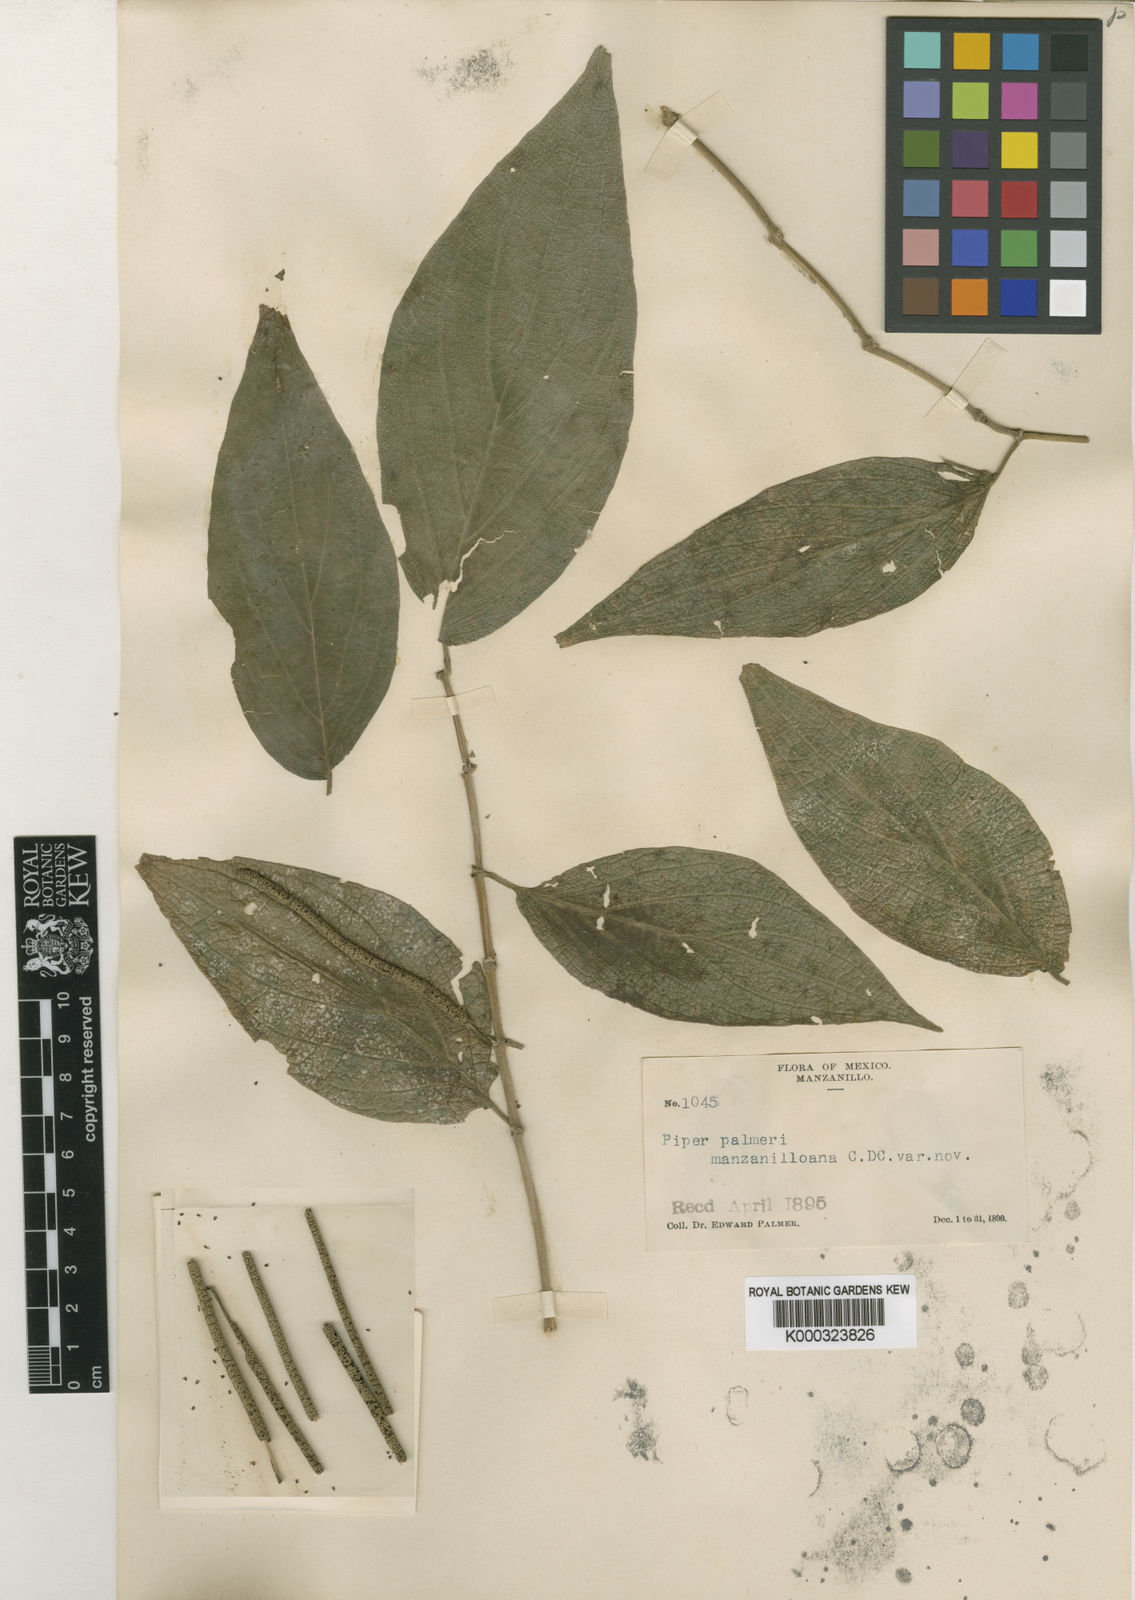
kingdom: Plantae
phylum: Tracheophyta
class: Magnoliopsida
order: Piperales
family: Piperaceae
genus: Piper
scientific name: Piper palmeri
